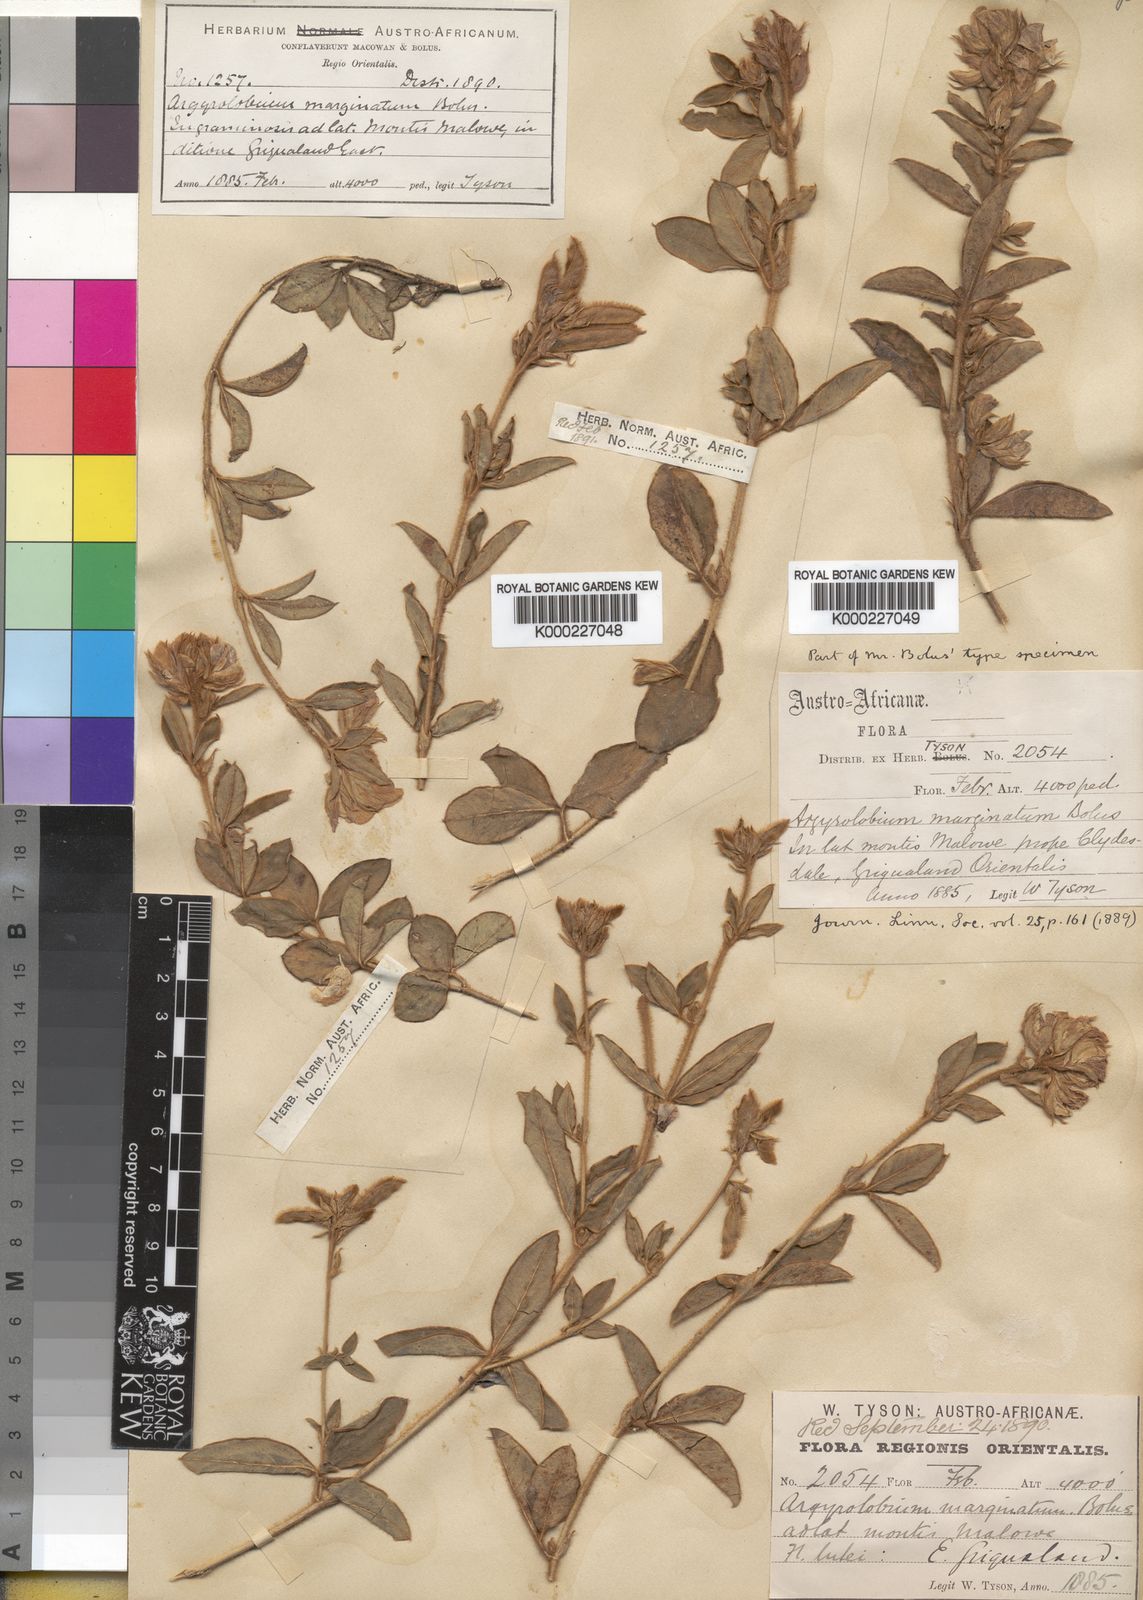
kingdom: Plantae
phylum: Tracheophyta
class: Magnoliopsida
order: Fabales
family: Fabaceae
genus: Argyrolobium
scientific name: Argyrolobium marginatum
